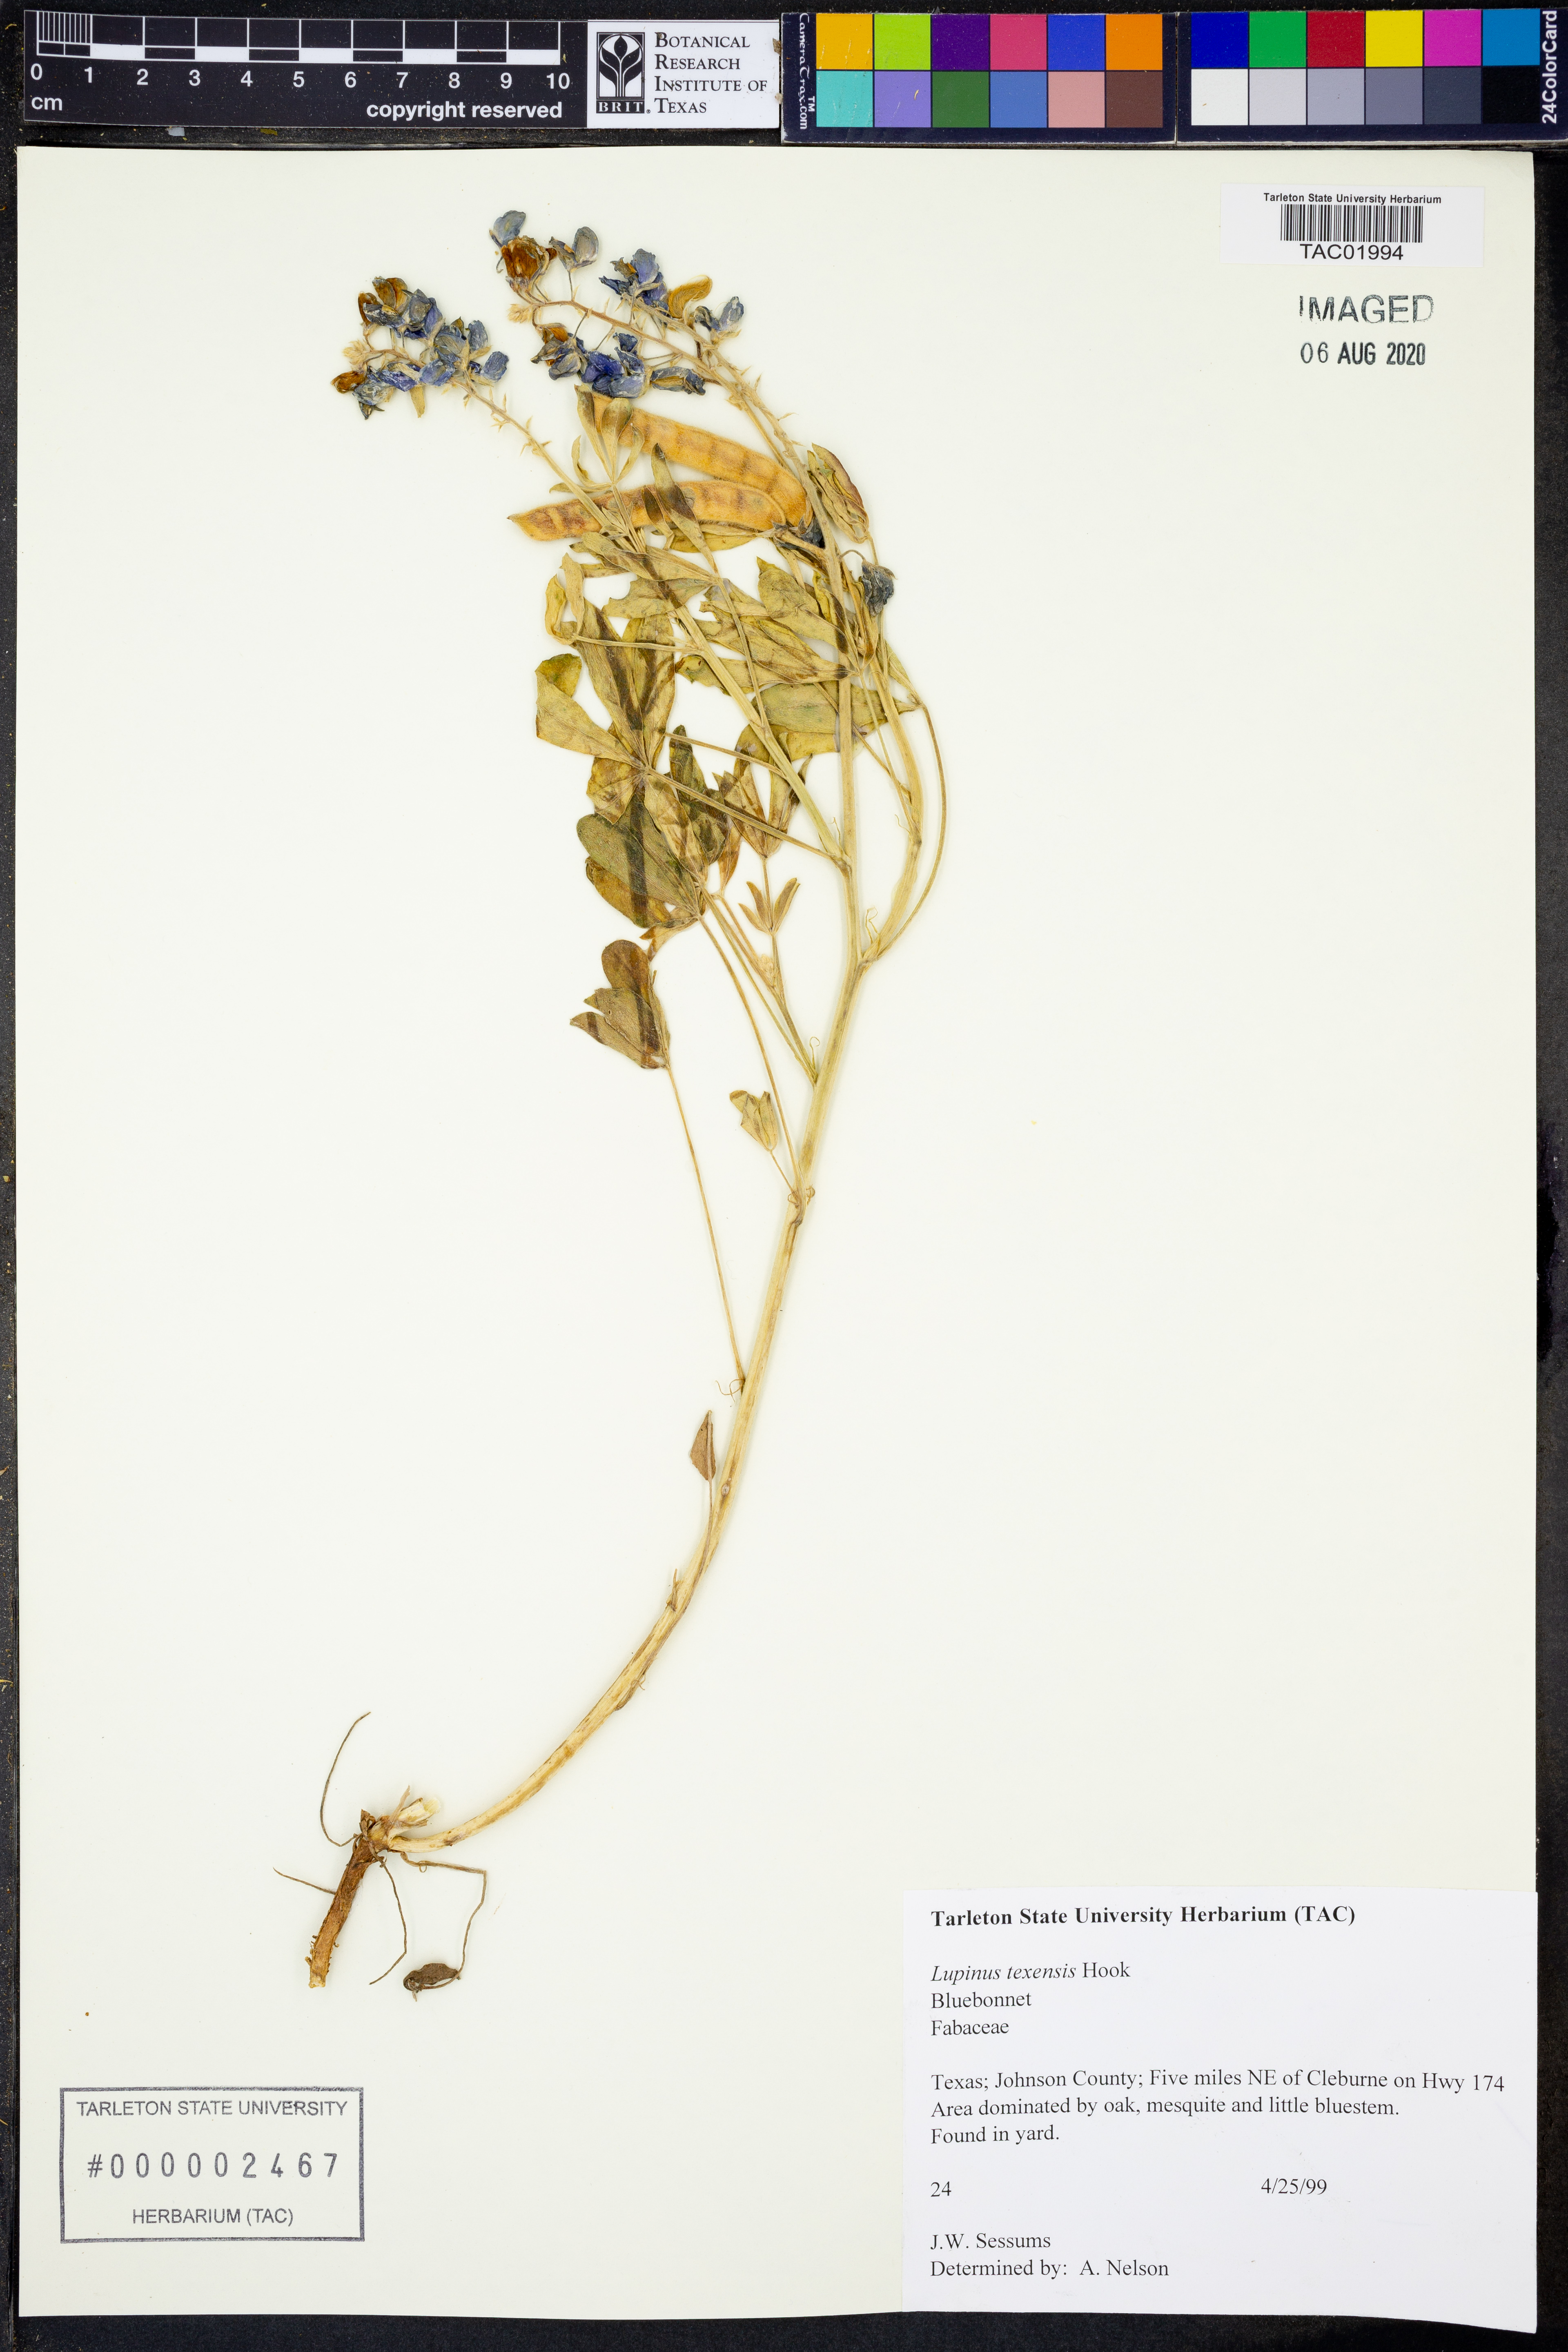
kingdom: Plantae
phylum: Tracheophyta
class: Magnoliopsida
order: Fabales
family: Fabaceae
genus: Lupinus
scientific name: Lupinus texensis
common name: Texas bluebonnet
